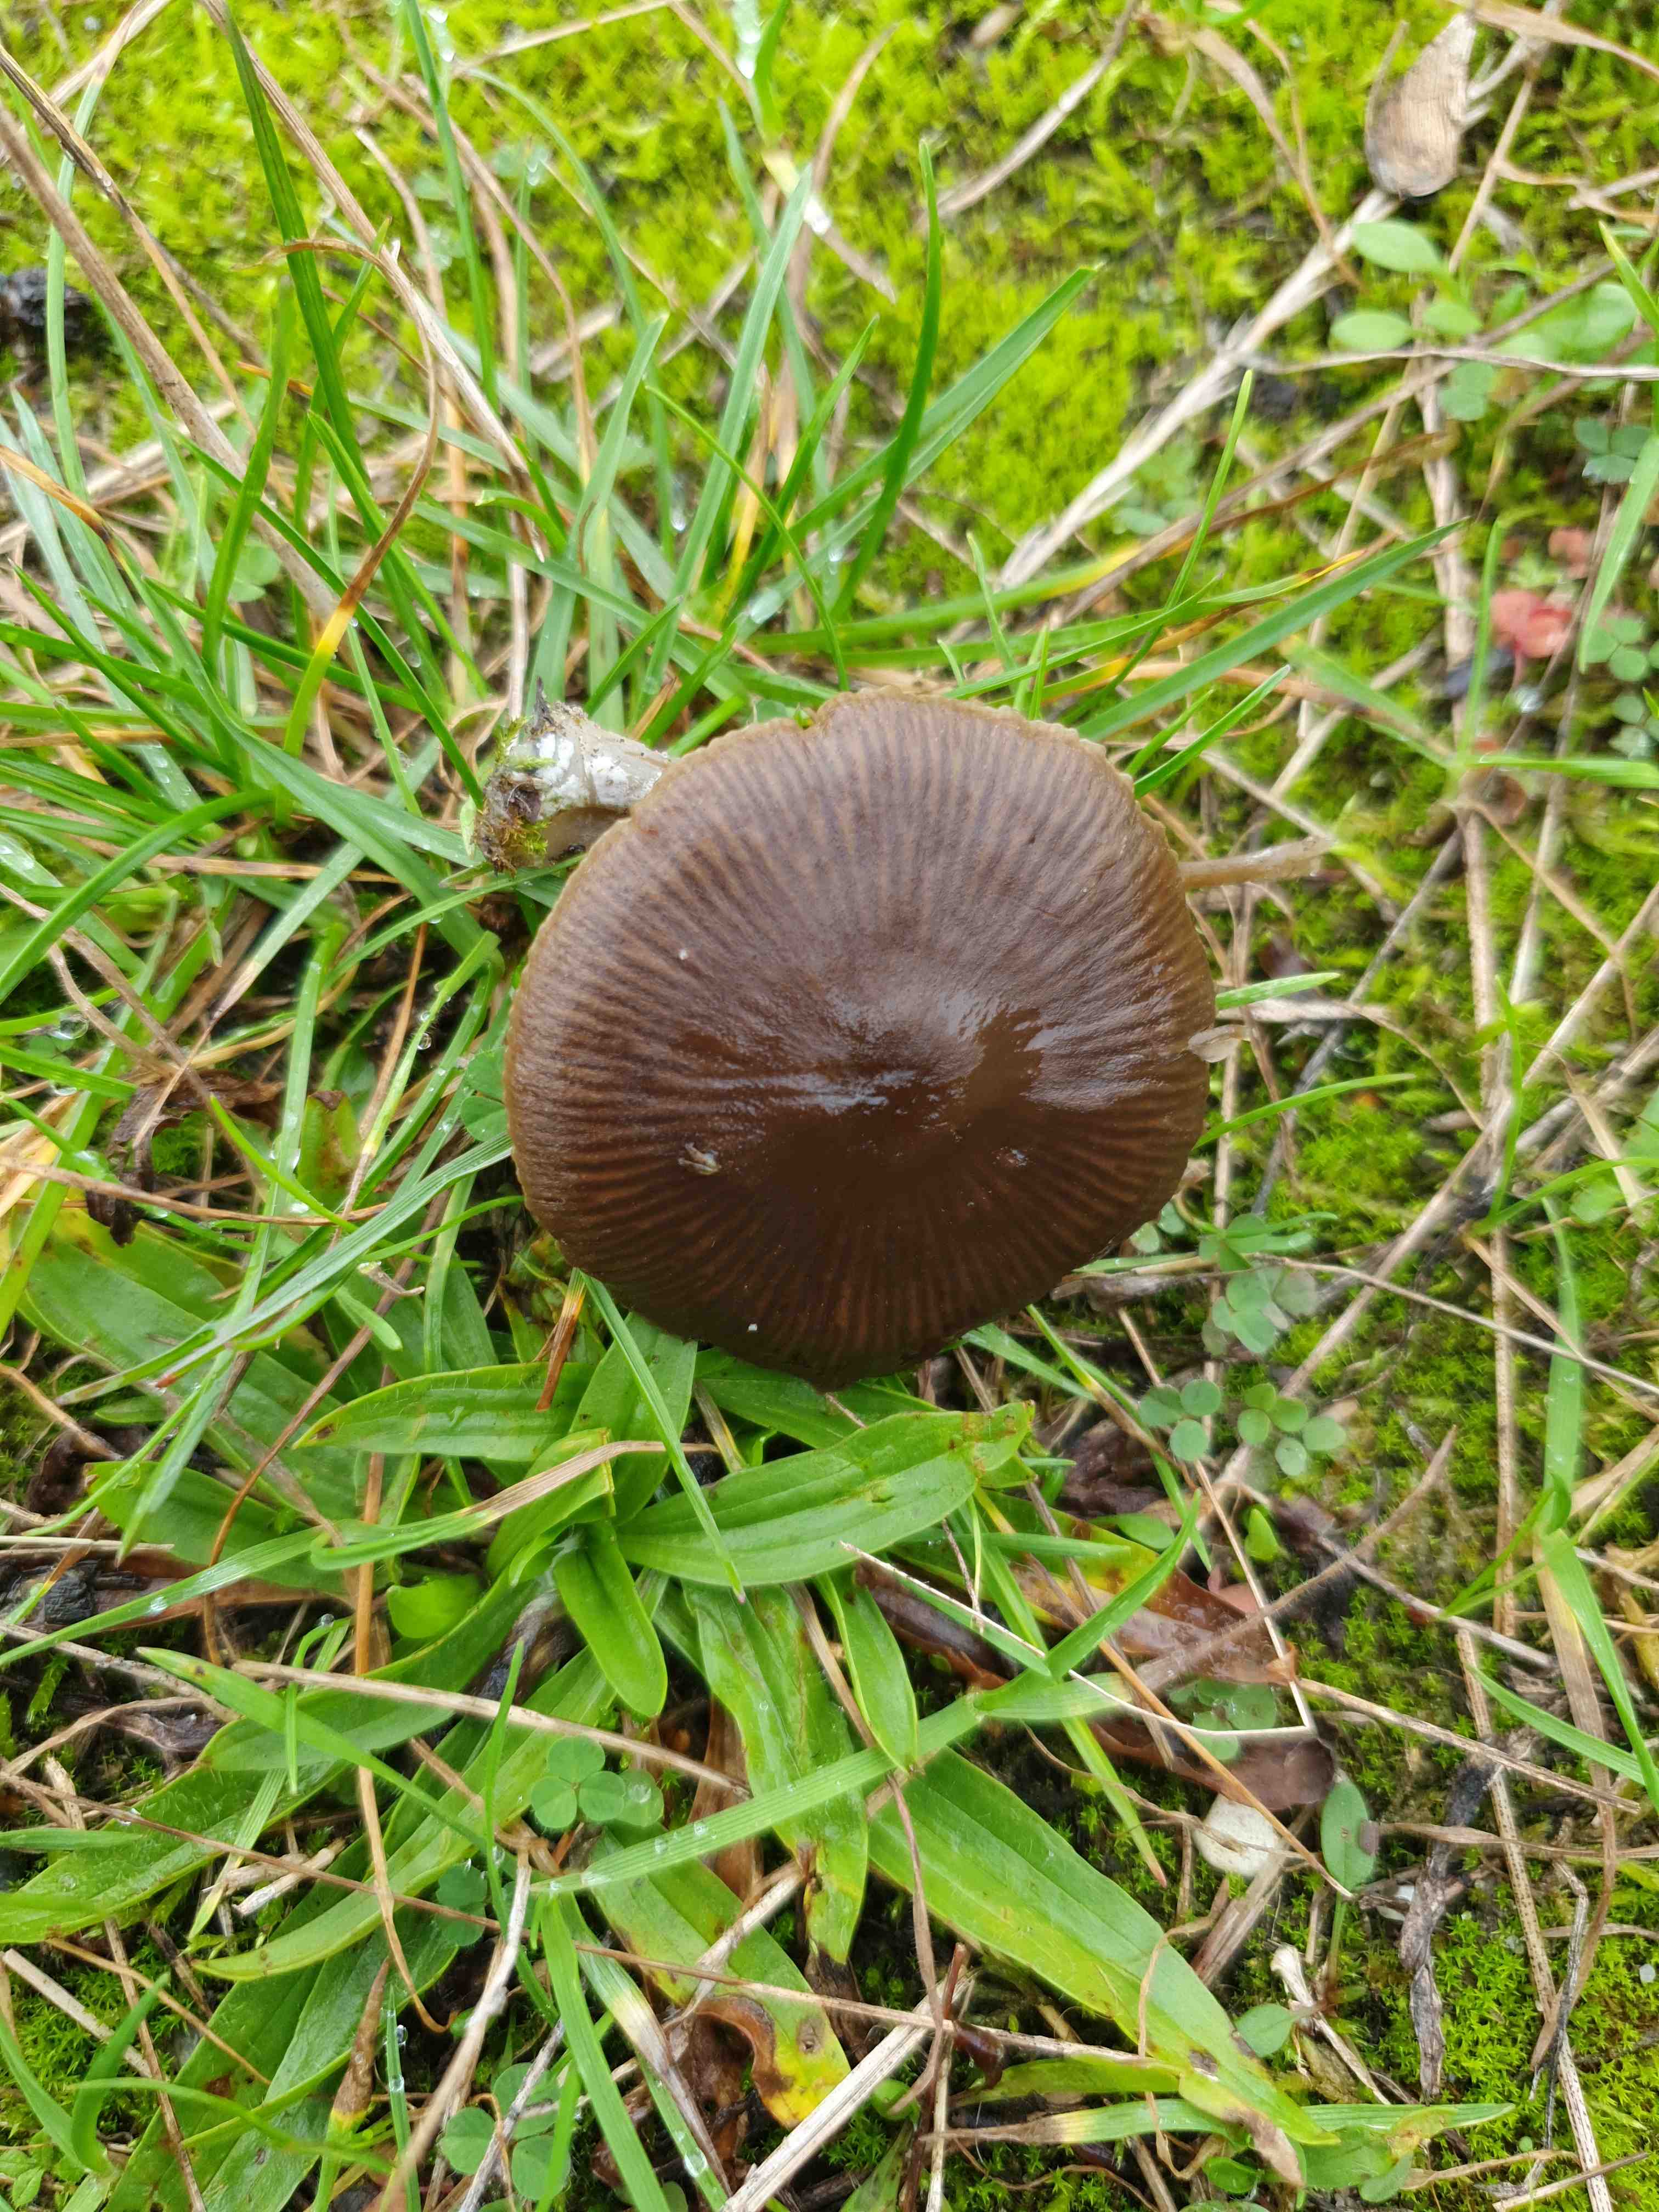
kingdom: Fungi
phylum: Basidiomycota
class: Agaricomycetes
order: Agaricales
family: Entolomataceae
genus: Entoloma
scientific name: Entoloma sericeum
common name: silkeglinsende rødblad
